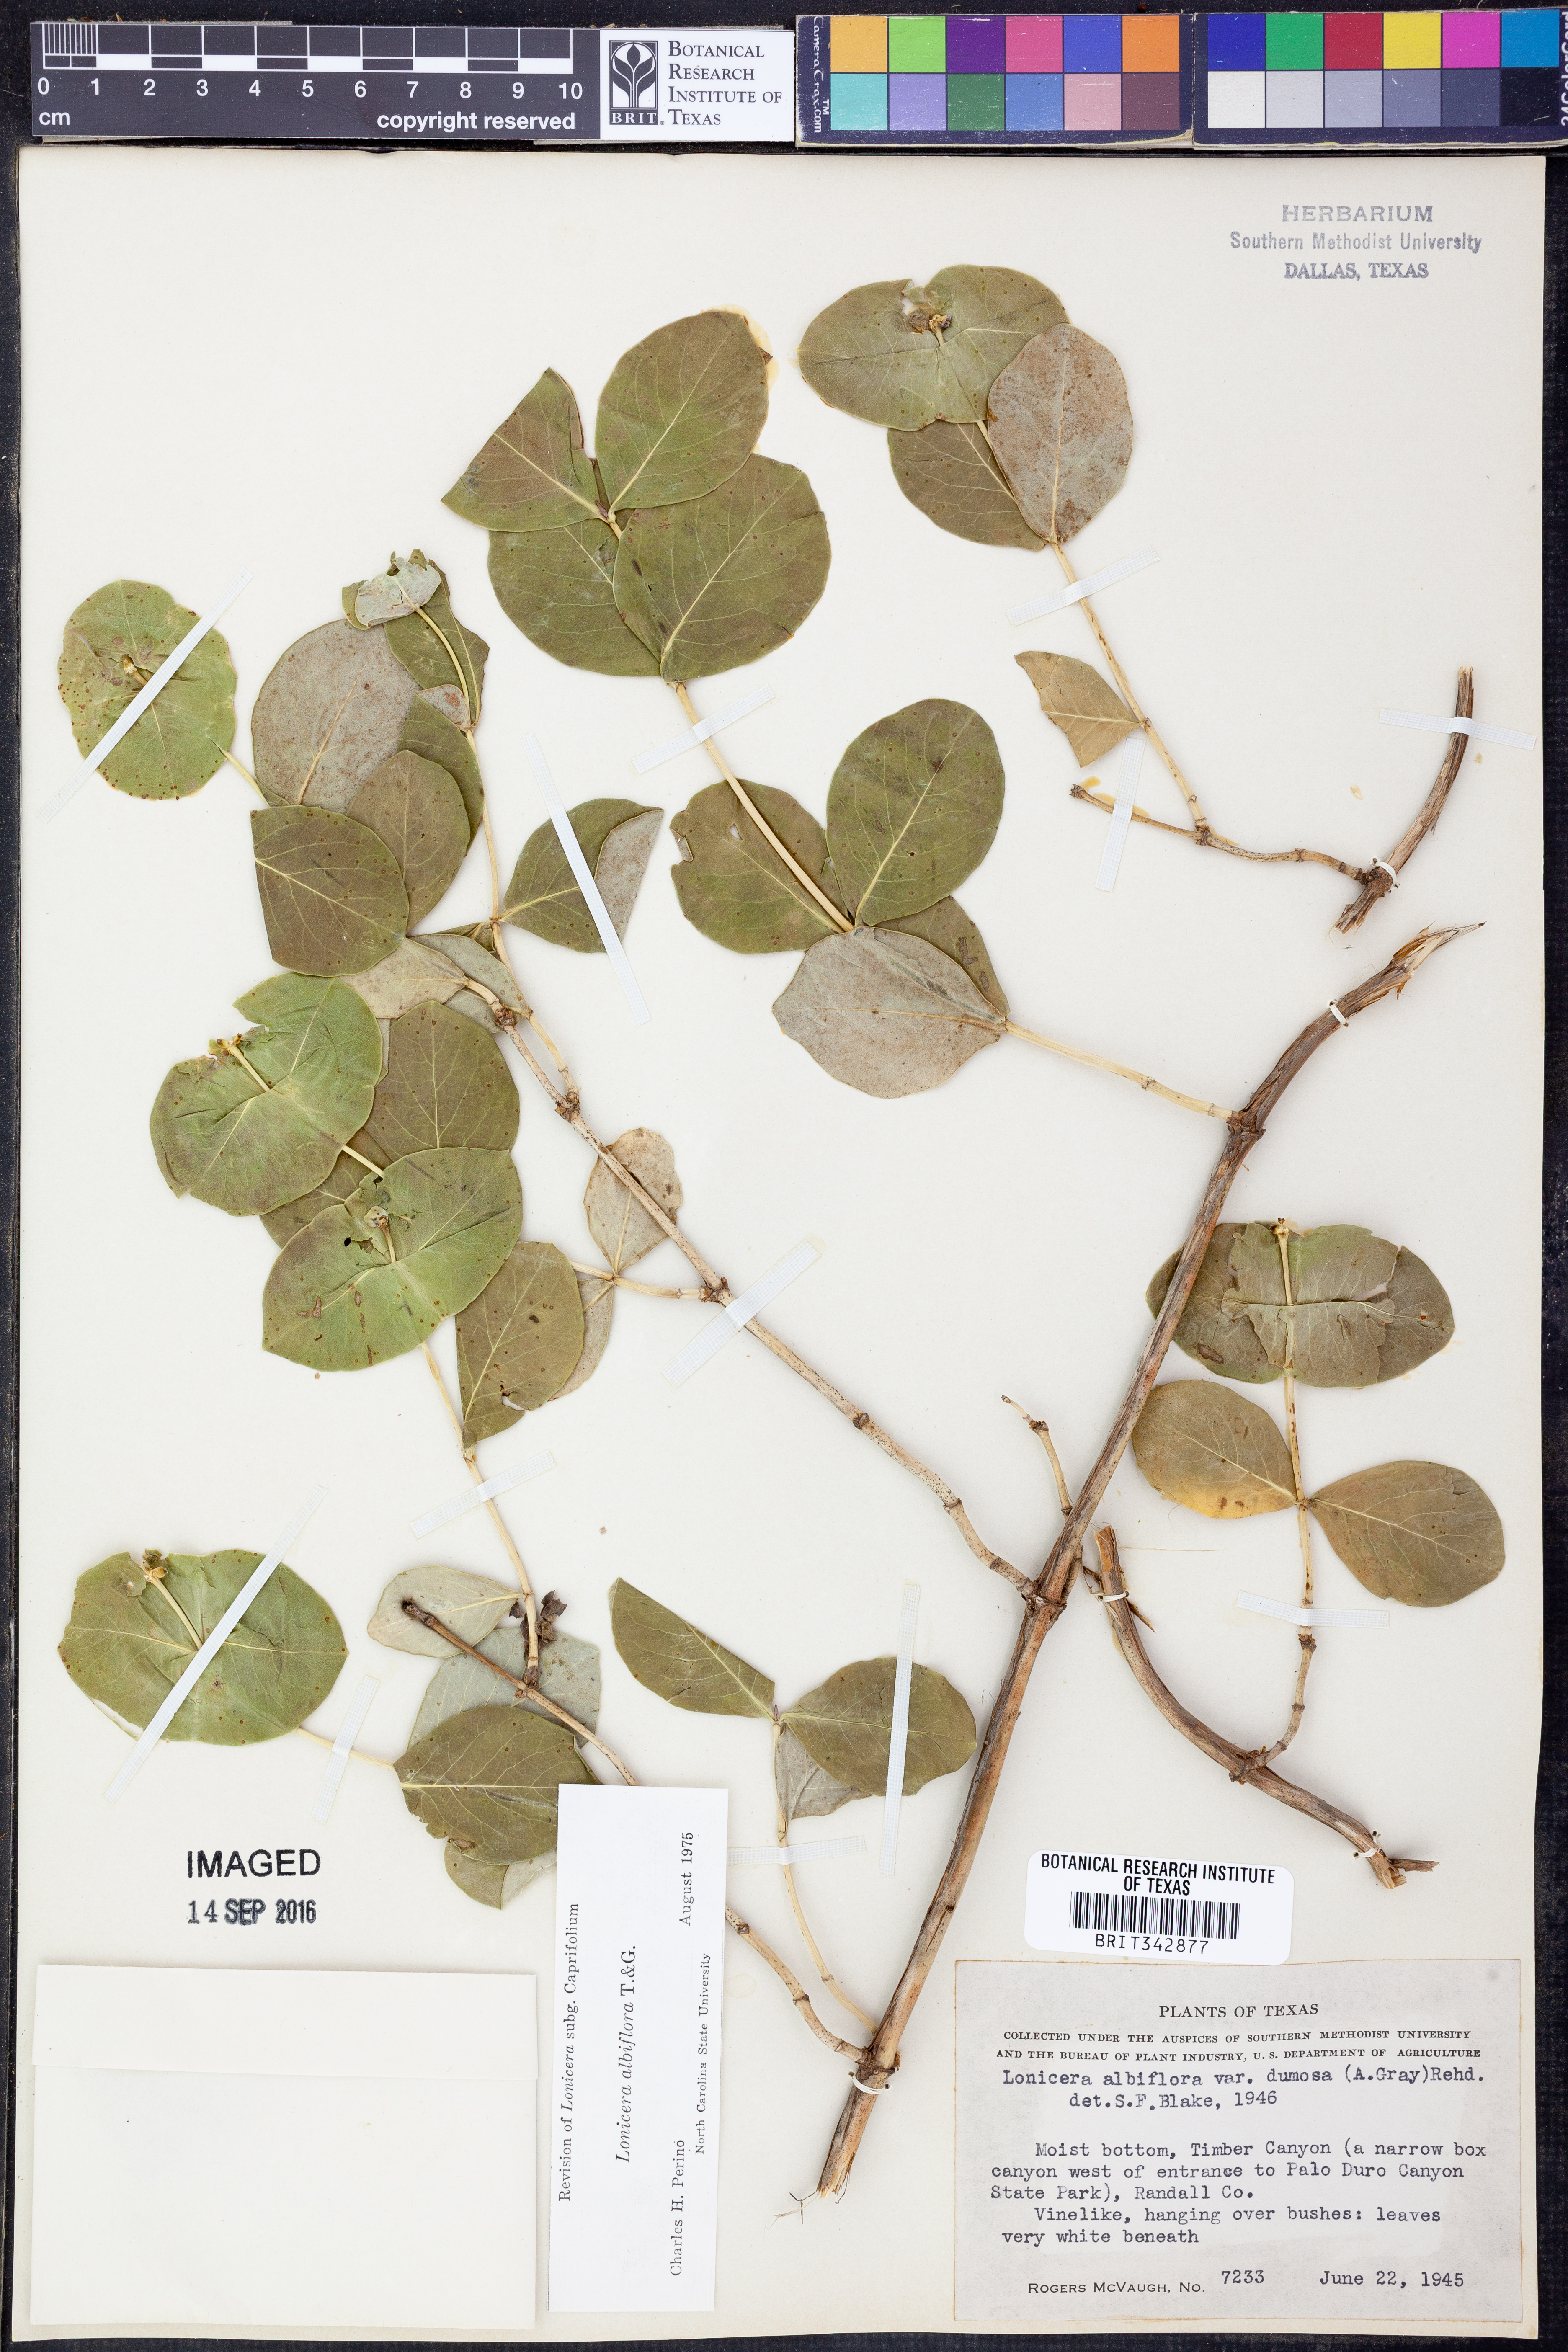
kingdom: Plantae
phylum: Tracheophyta
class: Magnoliopsida
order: Dipsacales
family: Caprifoliaceae
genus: Lonicera
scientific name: Lonicera albiflora
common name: White honeysuckle
